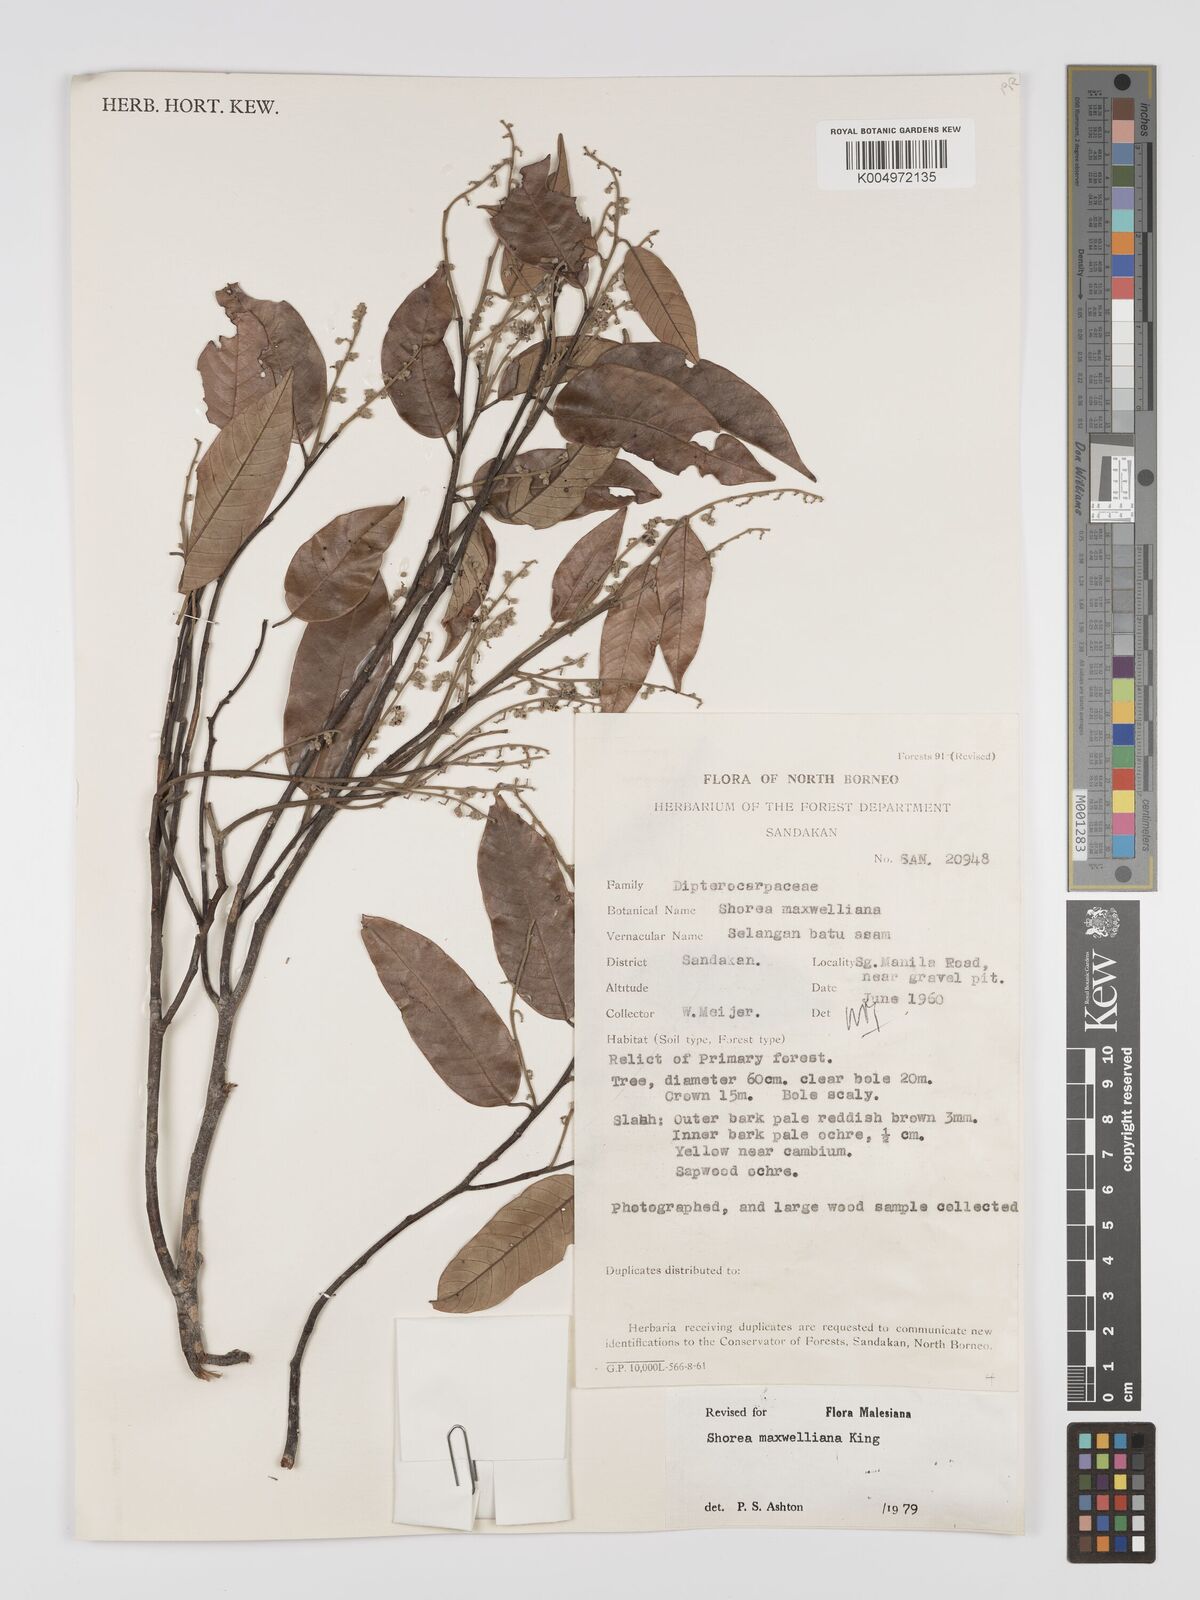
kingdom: Plantae
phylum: Tracheophyta
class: Magnoliopsida
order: Malvales
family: Dipterocarpaceae
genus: Shorea
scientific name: Shorea maxwelliana
